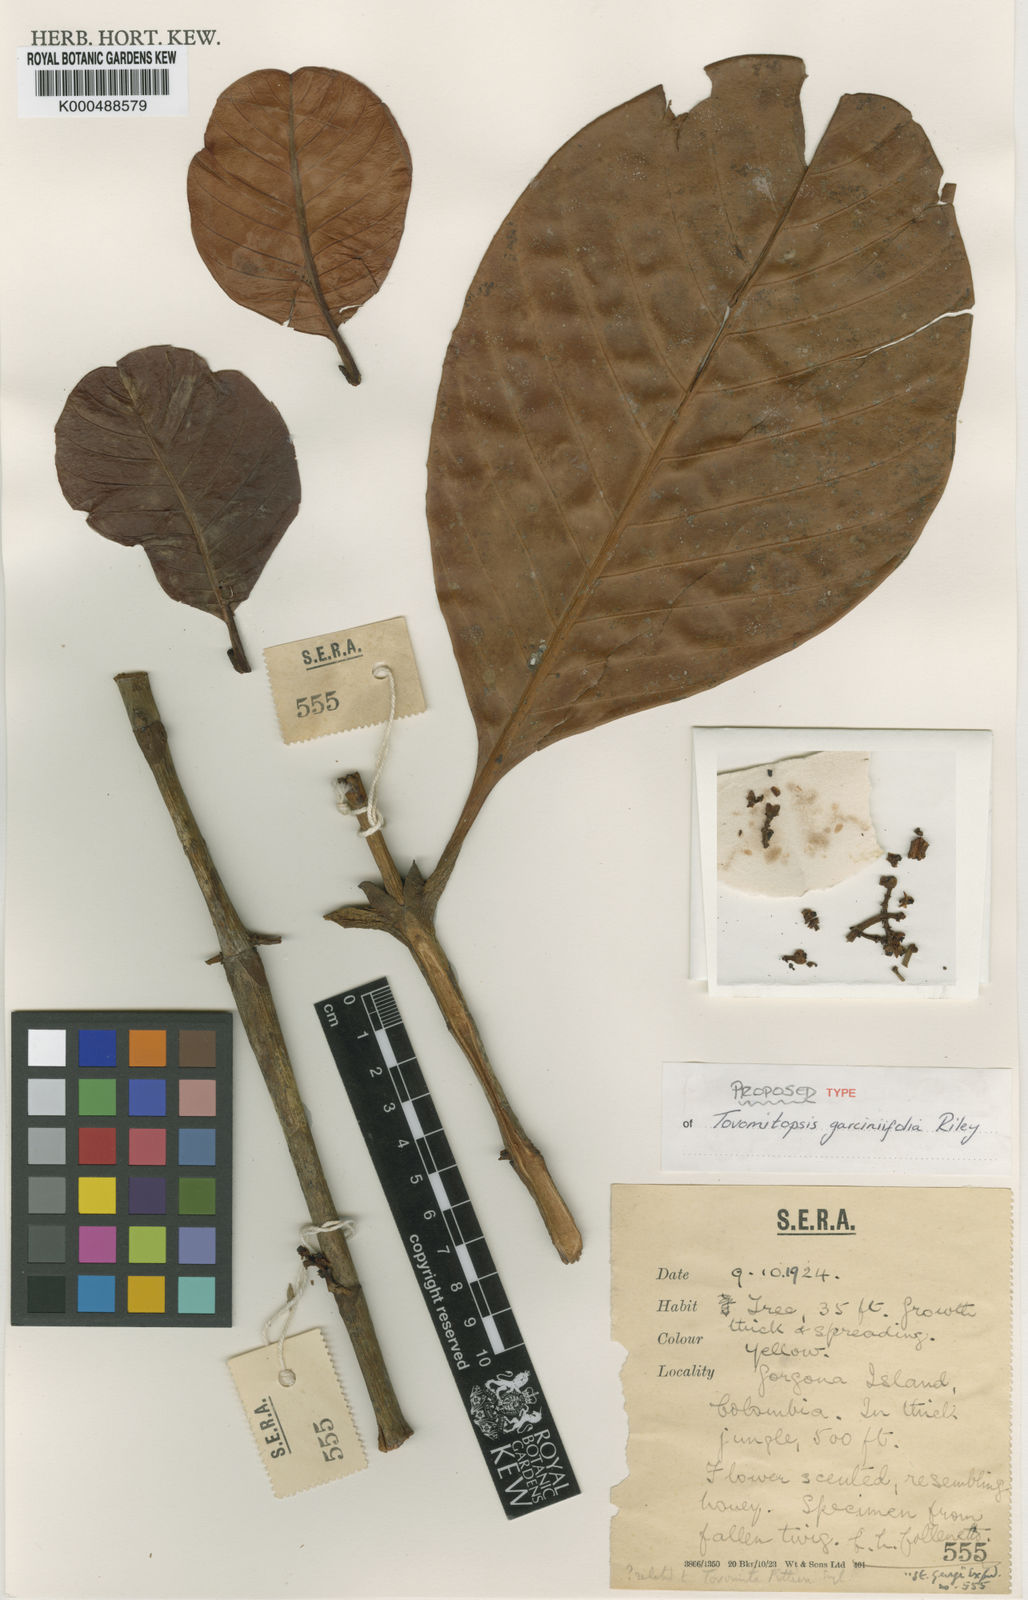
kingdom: Plantae
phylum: Tracheophyta
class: Magnoliopsida
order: Malpighiales
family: Clusiaceae
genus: Tovomita
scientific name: Tovomita
